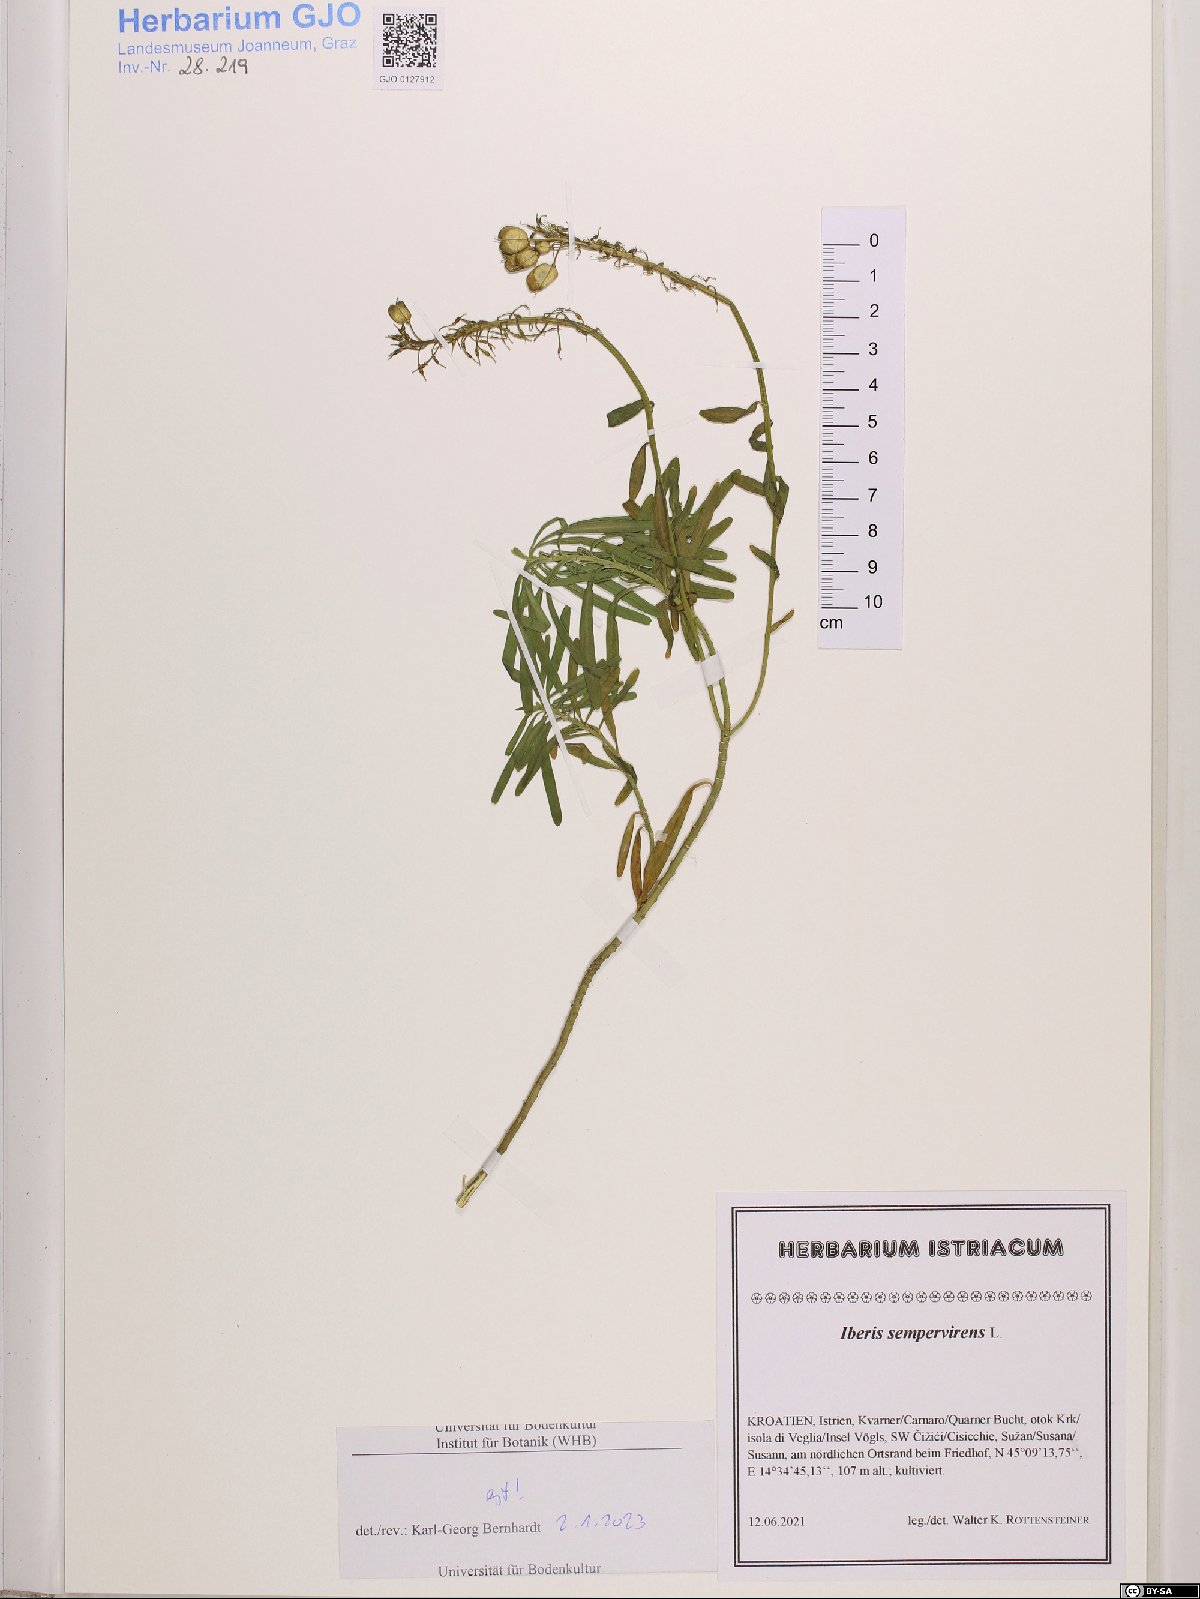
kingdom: Plantae
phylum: Tracheophyta
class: Magnoliopsida
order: Brassicales
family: Brassicaceae
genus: Iberis
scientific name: Iberis sempervirens
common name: Evergreen candytuft
